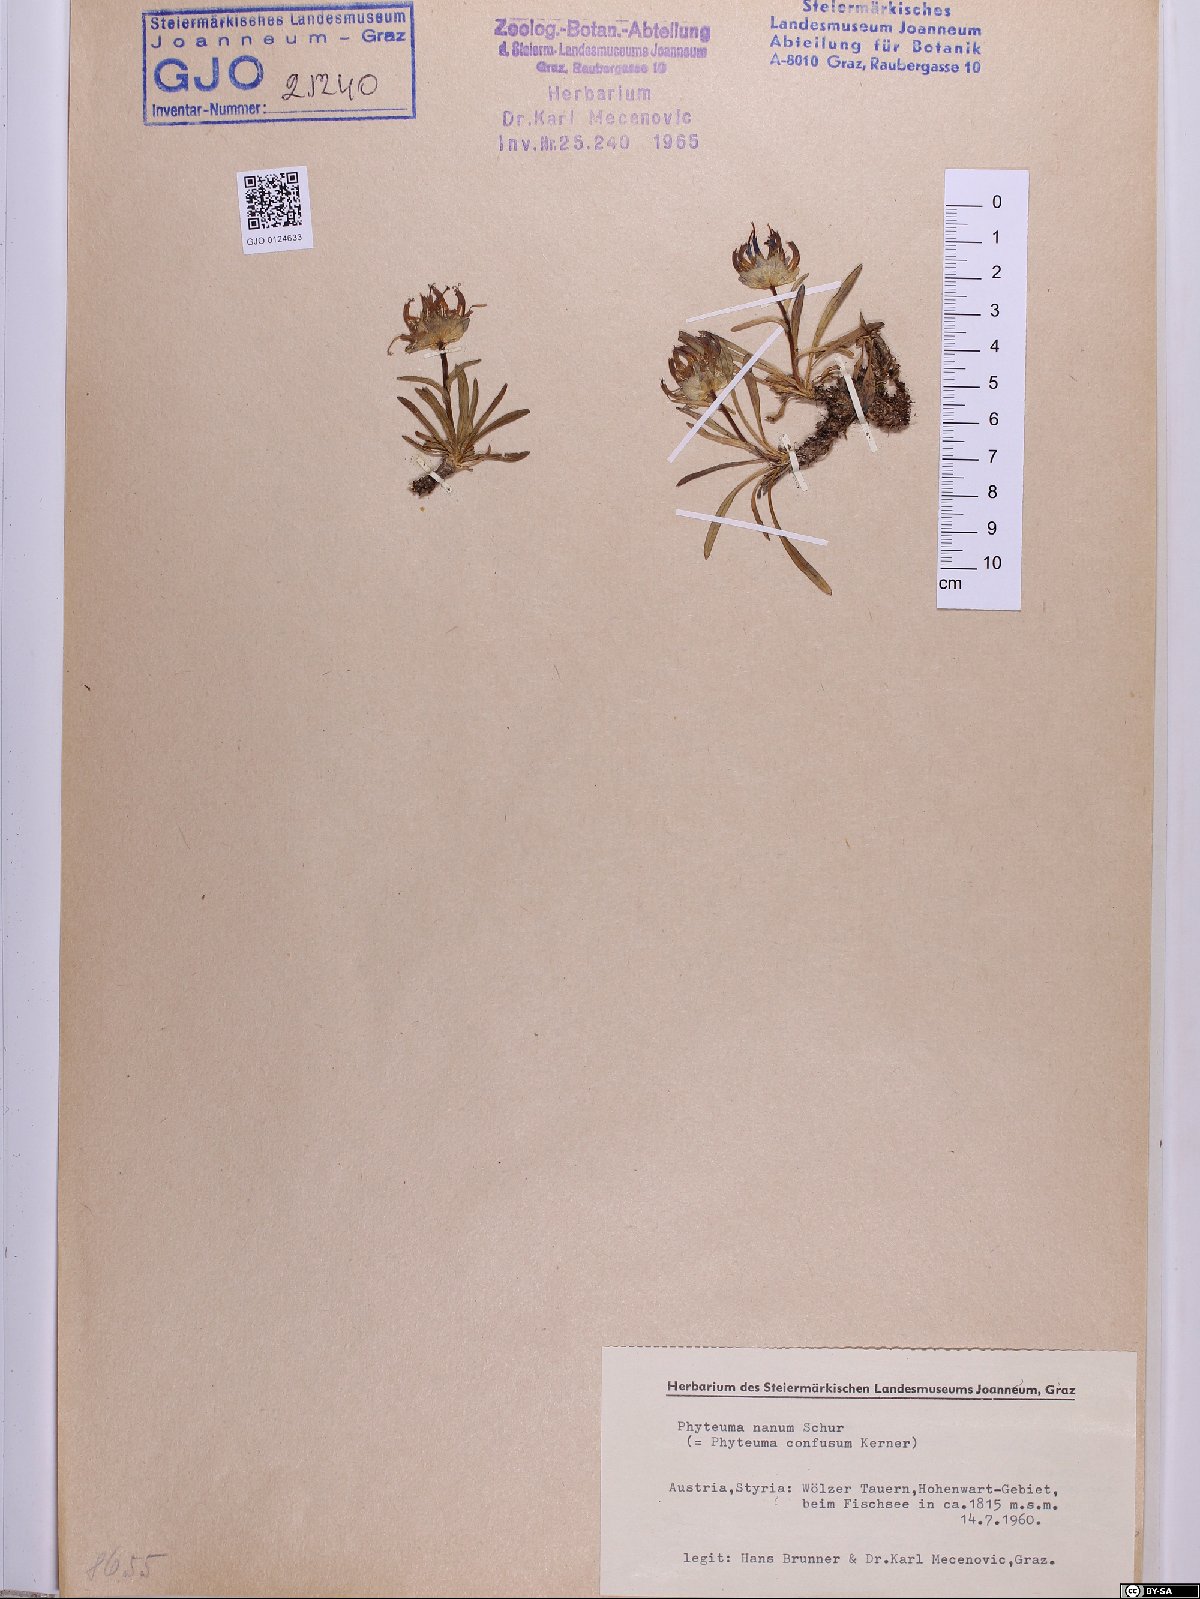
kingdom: Plantae
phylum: Tracheophyta
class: Magnoliopsida
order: Asterales
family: Campanulaceae
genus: Phyteuma
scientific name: Phyteuma globulariifolium
